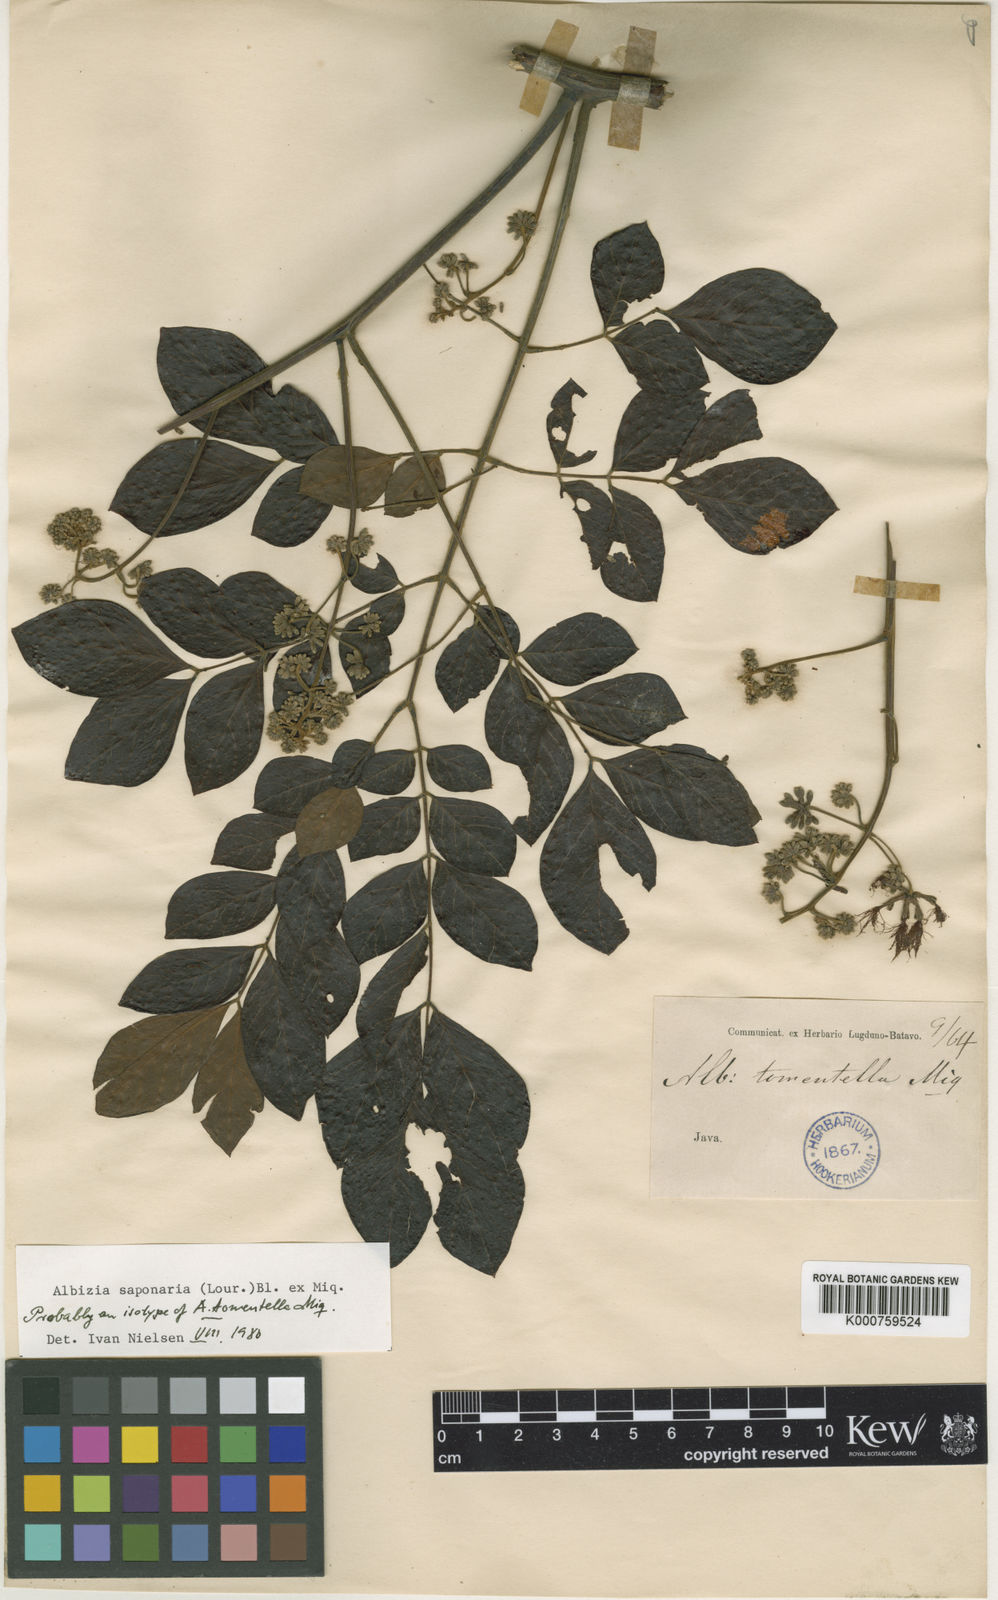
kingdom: Plantae
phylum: Tracheophyta
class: Magnoliopsida
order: Fabales
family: Fabaceae
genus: Albizia
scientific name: Albizia tomentella
